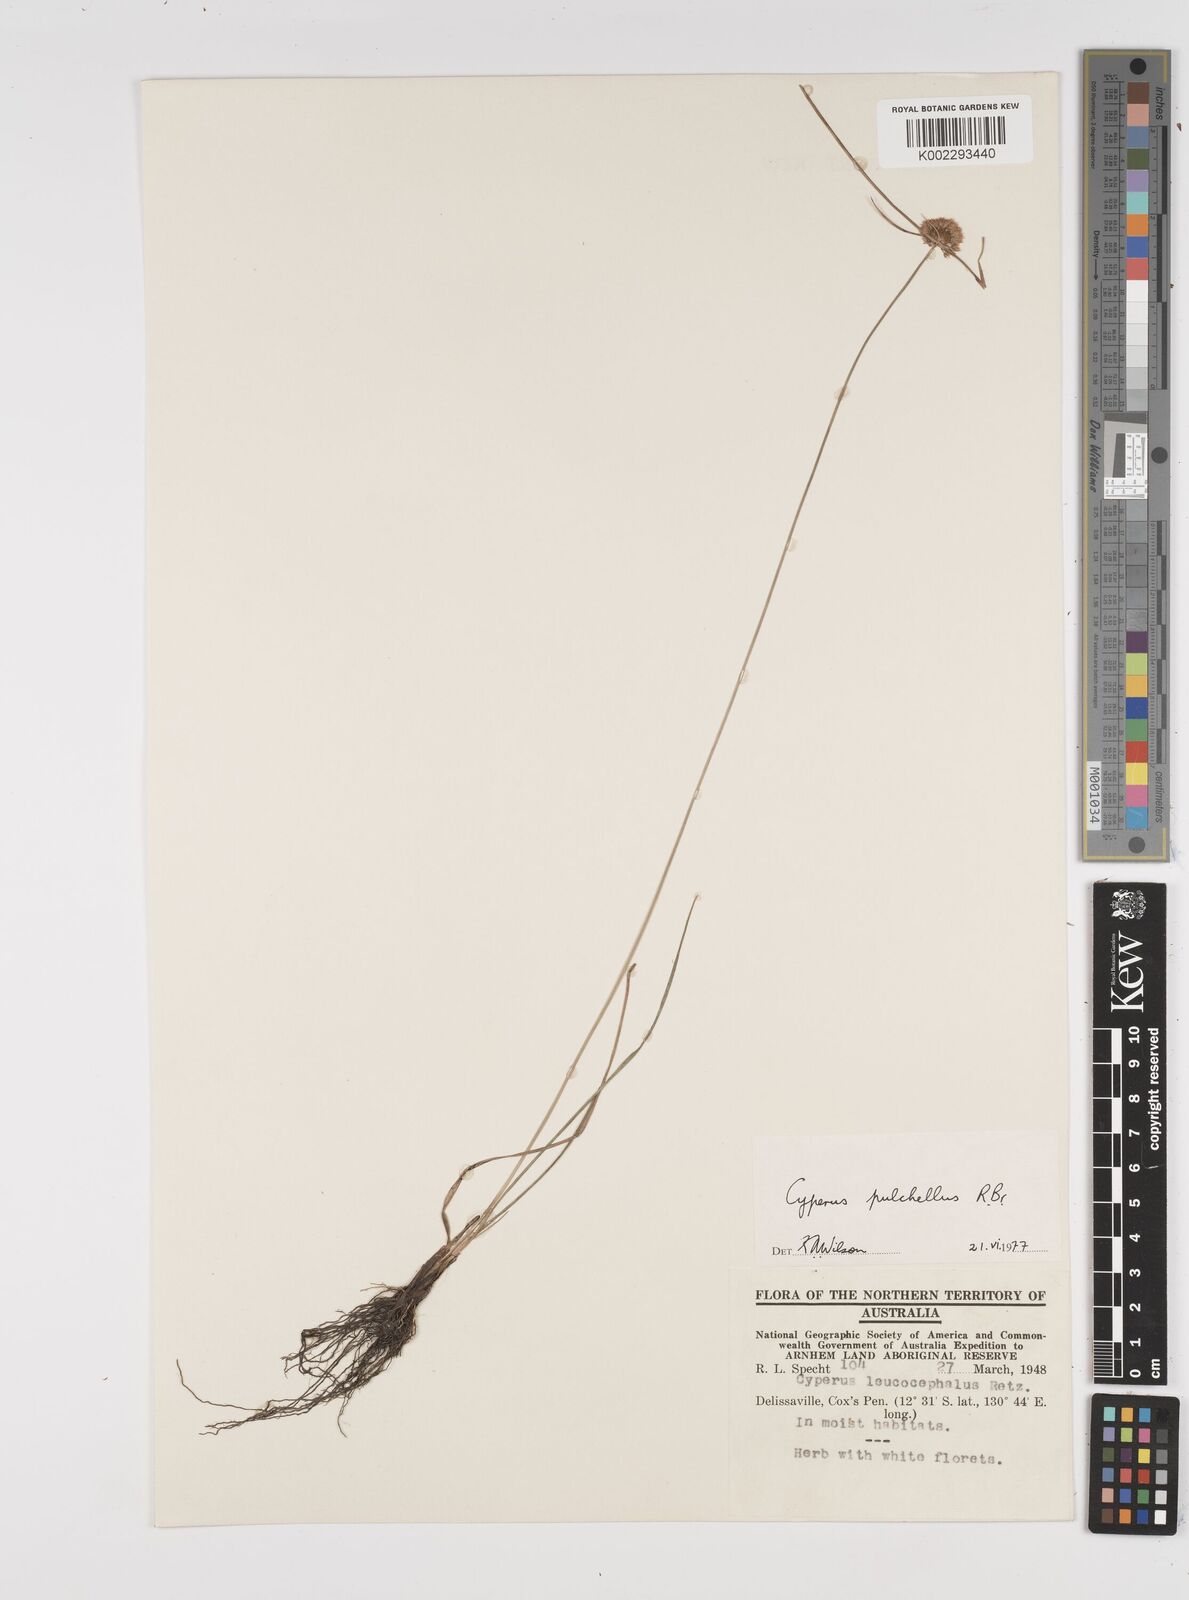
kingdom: Plantae
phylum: Tracheophyta
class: Liliopsida
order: Poales
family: Cyperaceae
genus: Cyperus
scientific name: Cyperus pulchellus
